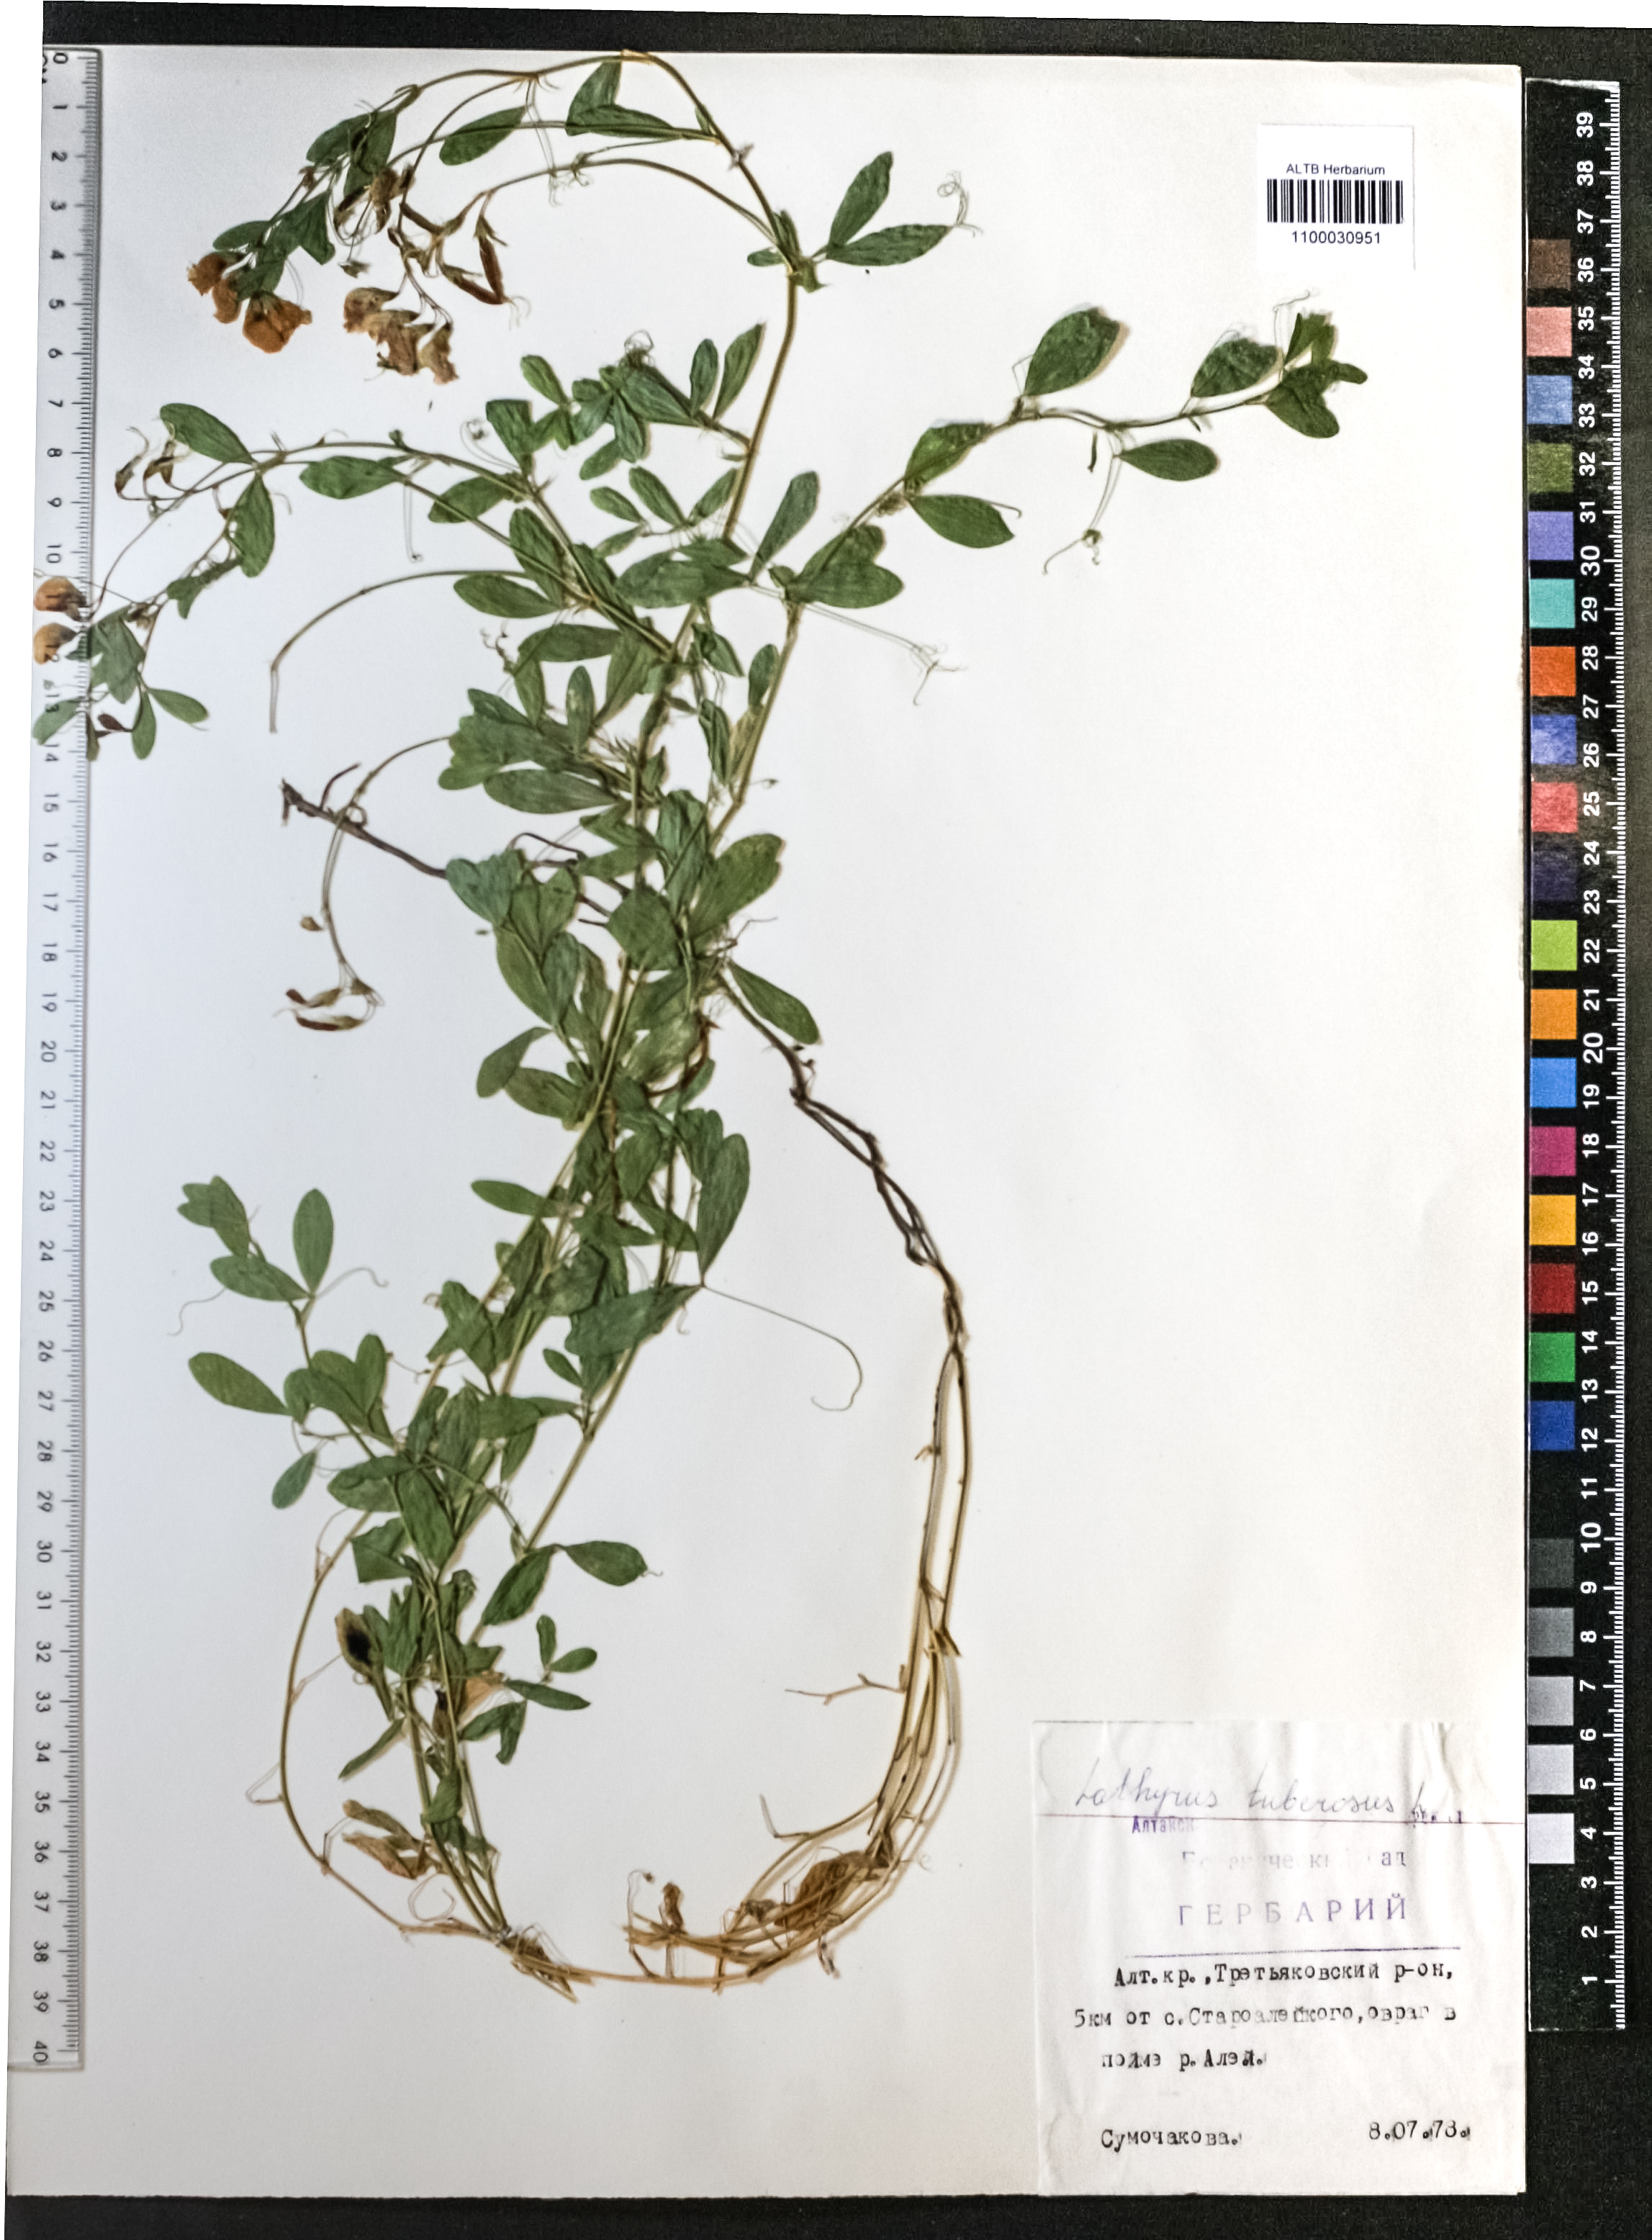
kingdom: Plantae
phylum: Tracheophyta
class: Magnoliopsida
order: Fabales
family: Fabaceae
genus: Lathyrus
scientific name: Lathyrus tuberosus
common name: Tuberous pea
